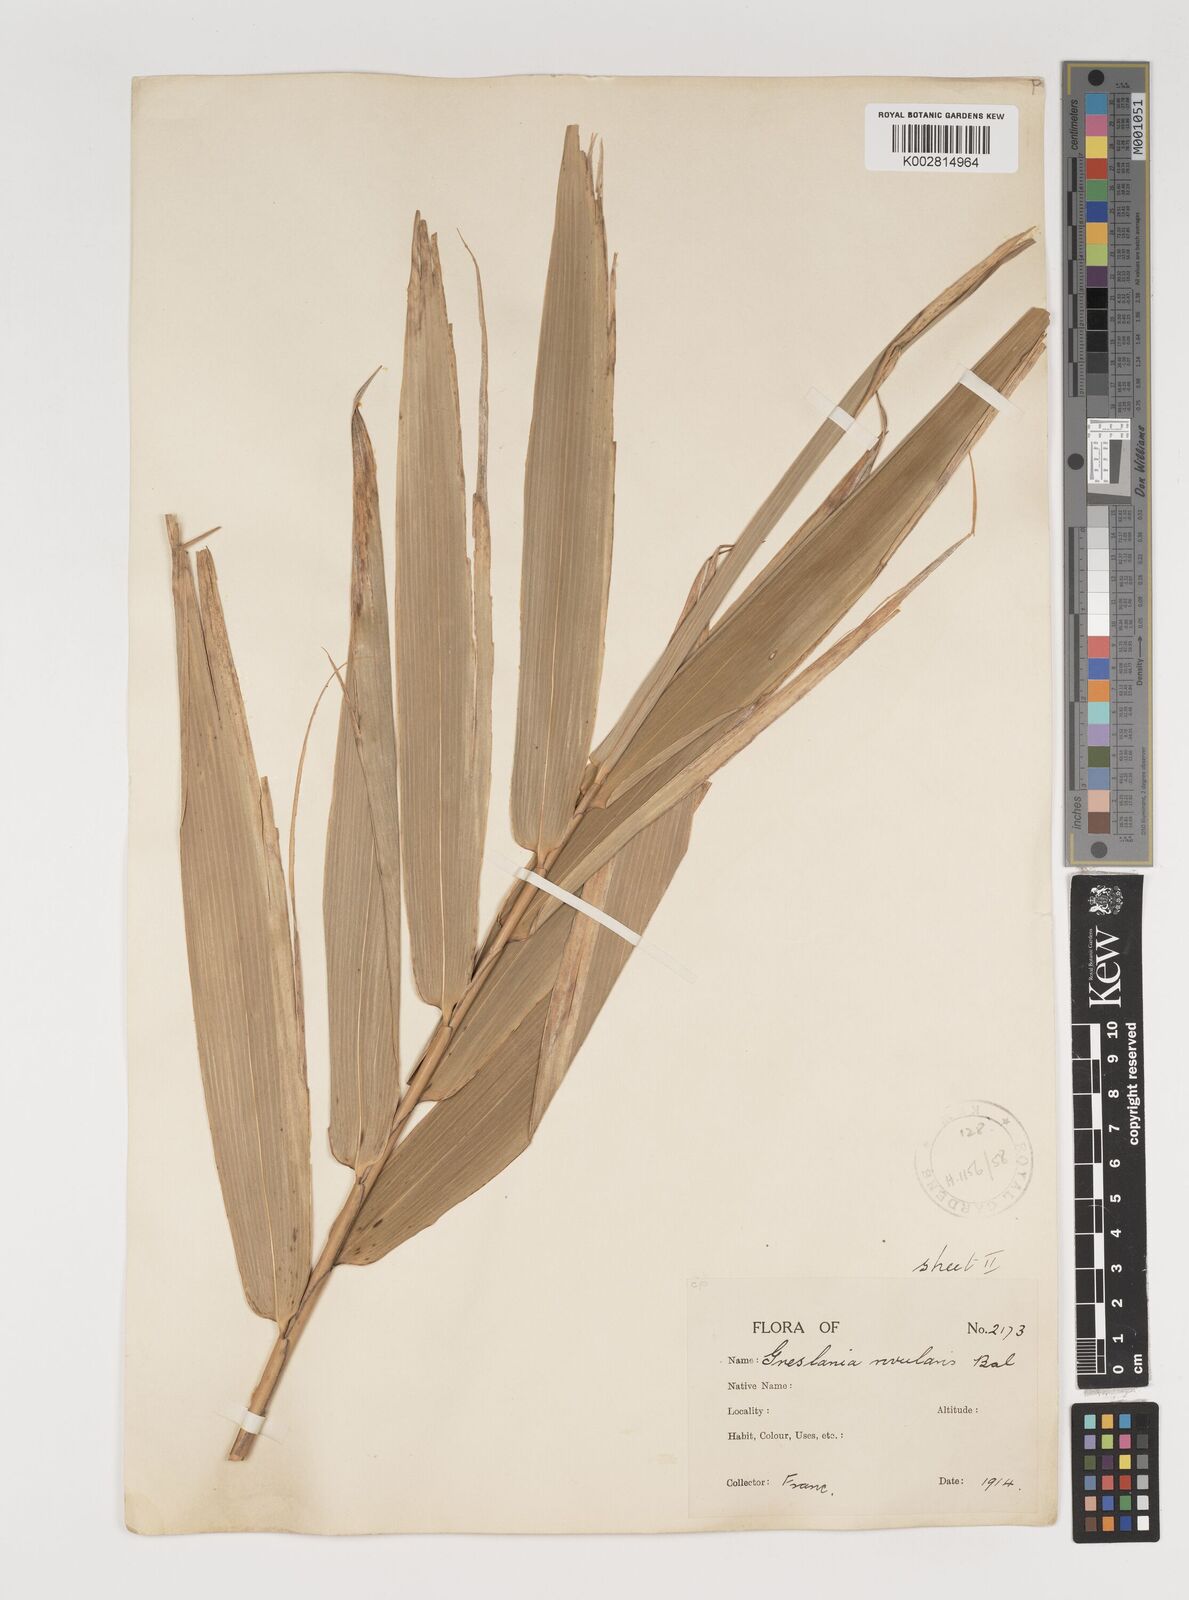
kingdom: Plantae
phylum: Tracheophyta
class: Liliopsida
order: Poales
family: Poaceae
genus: Greslania
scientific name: Greslania rivularis
